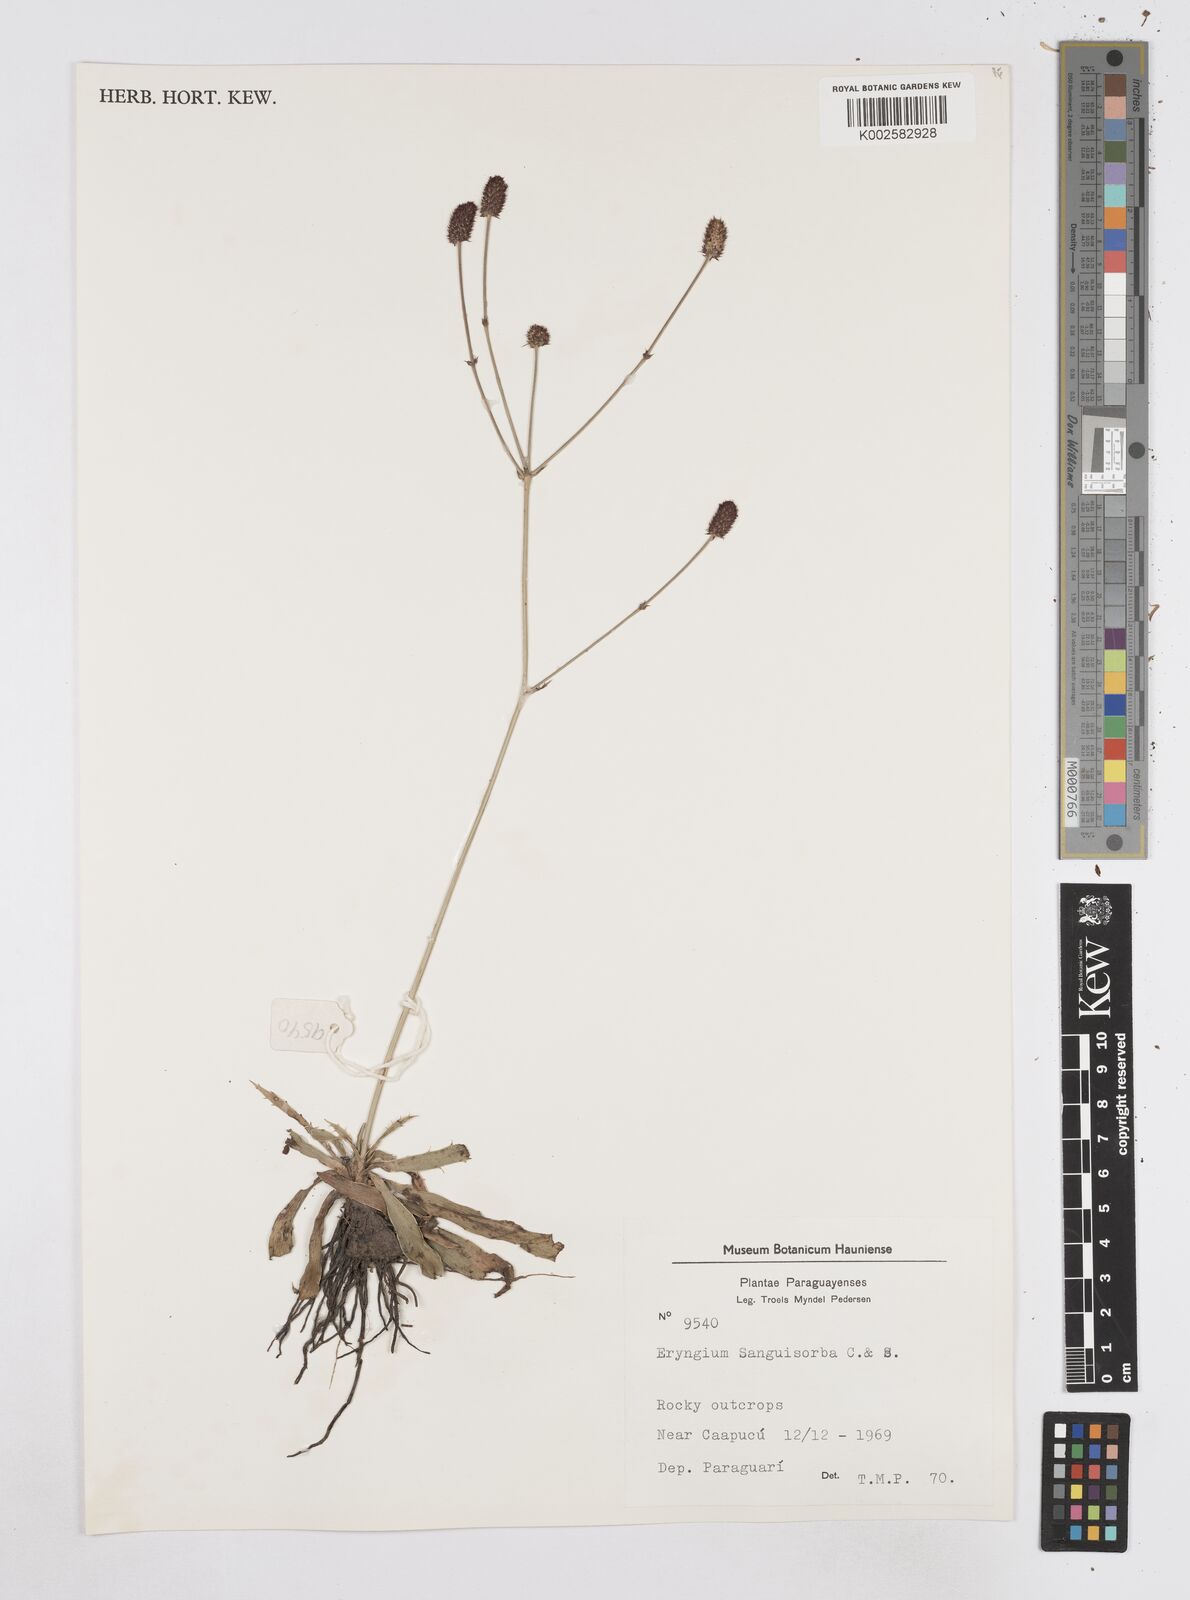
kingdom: Plantae
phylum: Tracheophyta
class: Magnoliopsida
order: Apiales
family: Apiaceae
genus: Eryngium
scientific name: Eryngium sanguisorba
